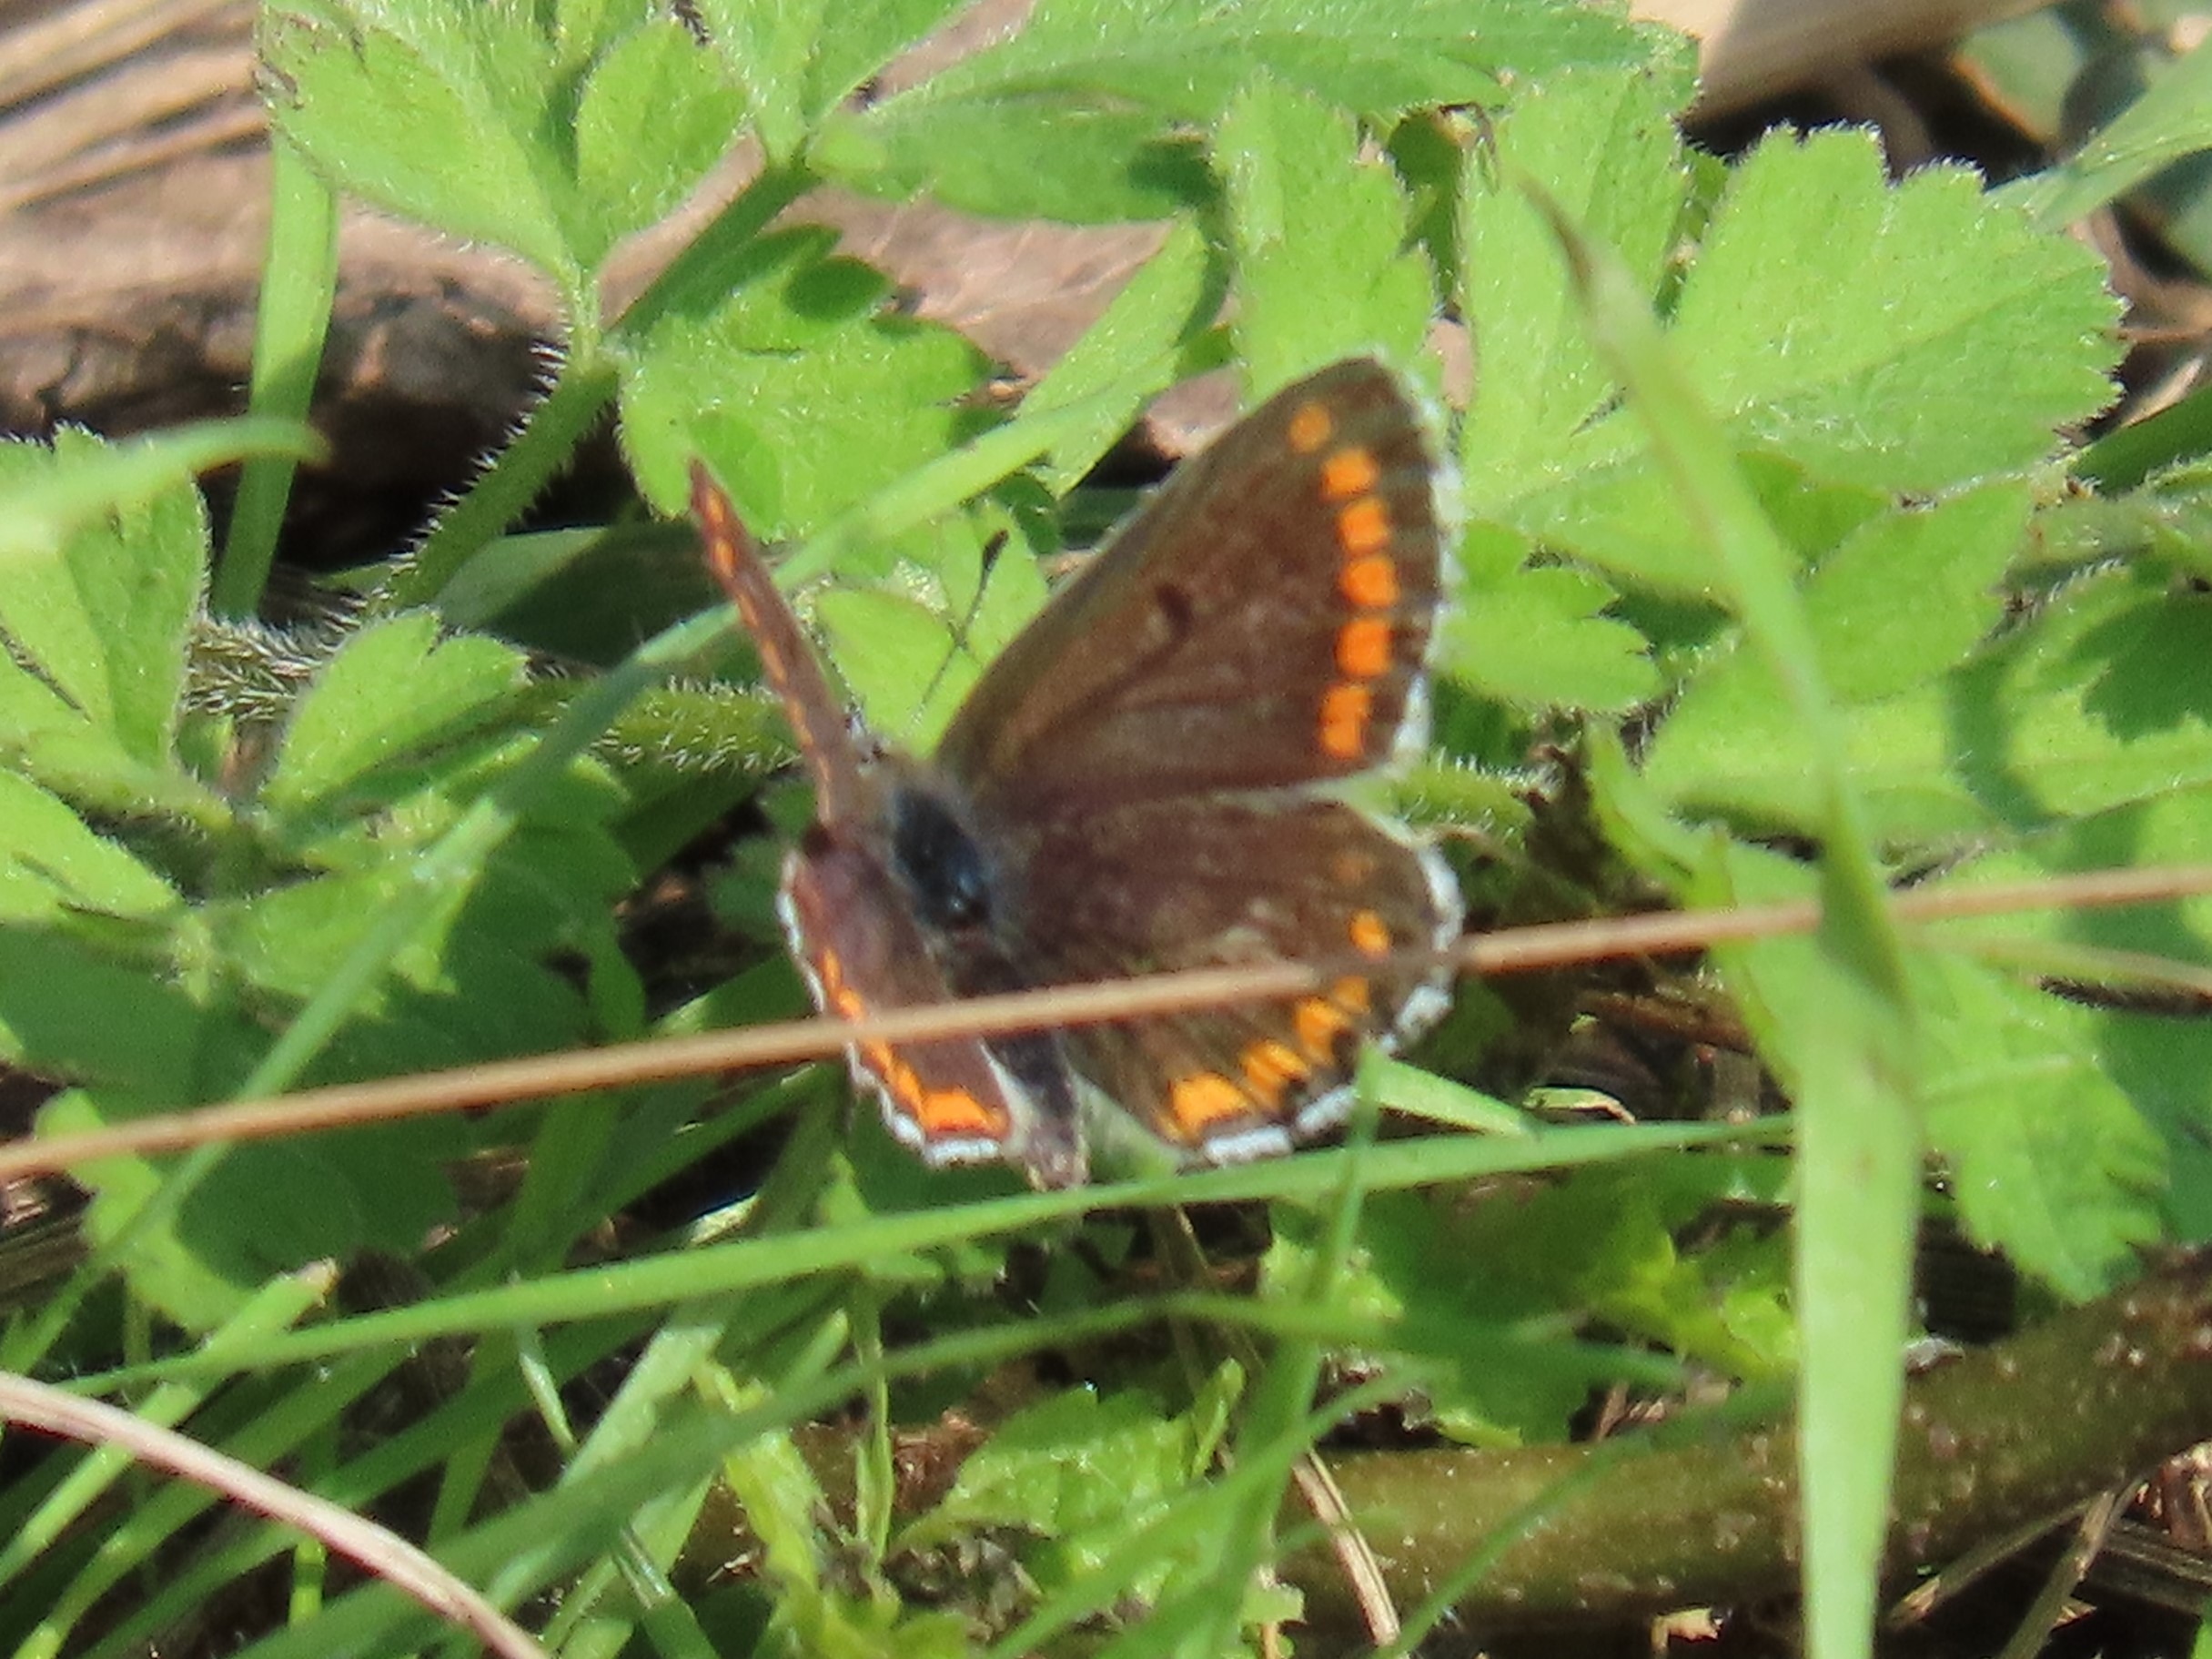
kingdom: Animalia
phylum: Arthropoda
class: Insecta
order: Lepidoptera
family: Lycaenidae
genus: Aricia
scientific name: Aricia agestis
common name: Rødplettet blåfugl
